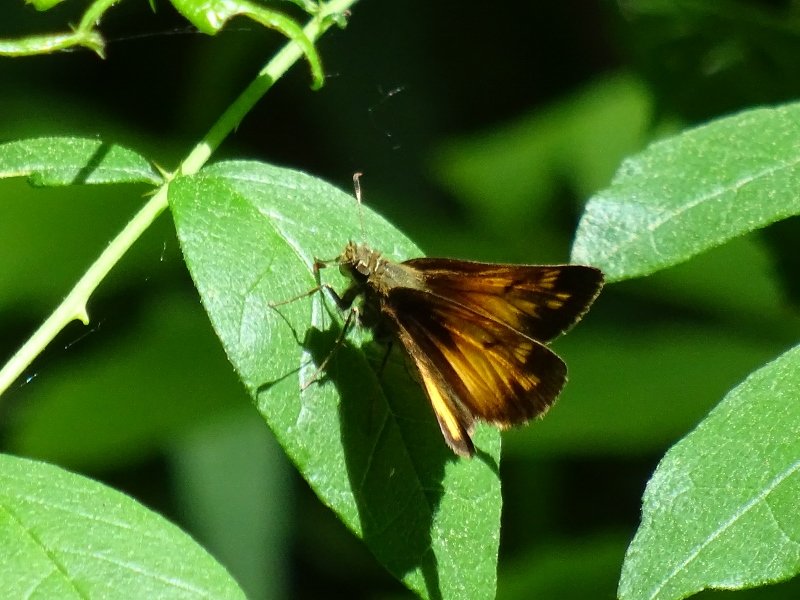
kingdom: Animalia
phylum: Arthropoda
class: Insecta
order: Lepidoptera
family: Hesperiidae
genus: Lon
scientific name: Lon hobomok
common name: Hobomok Skipper
